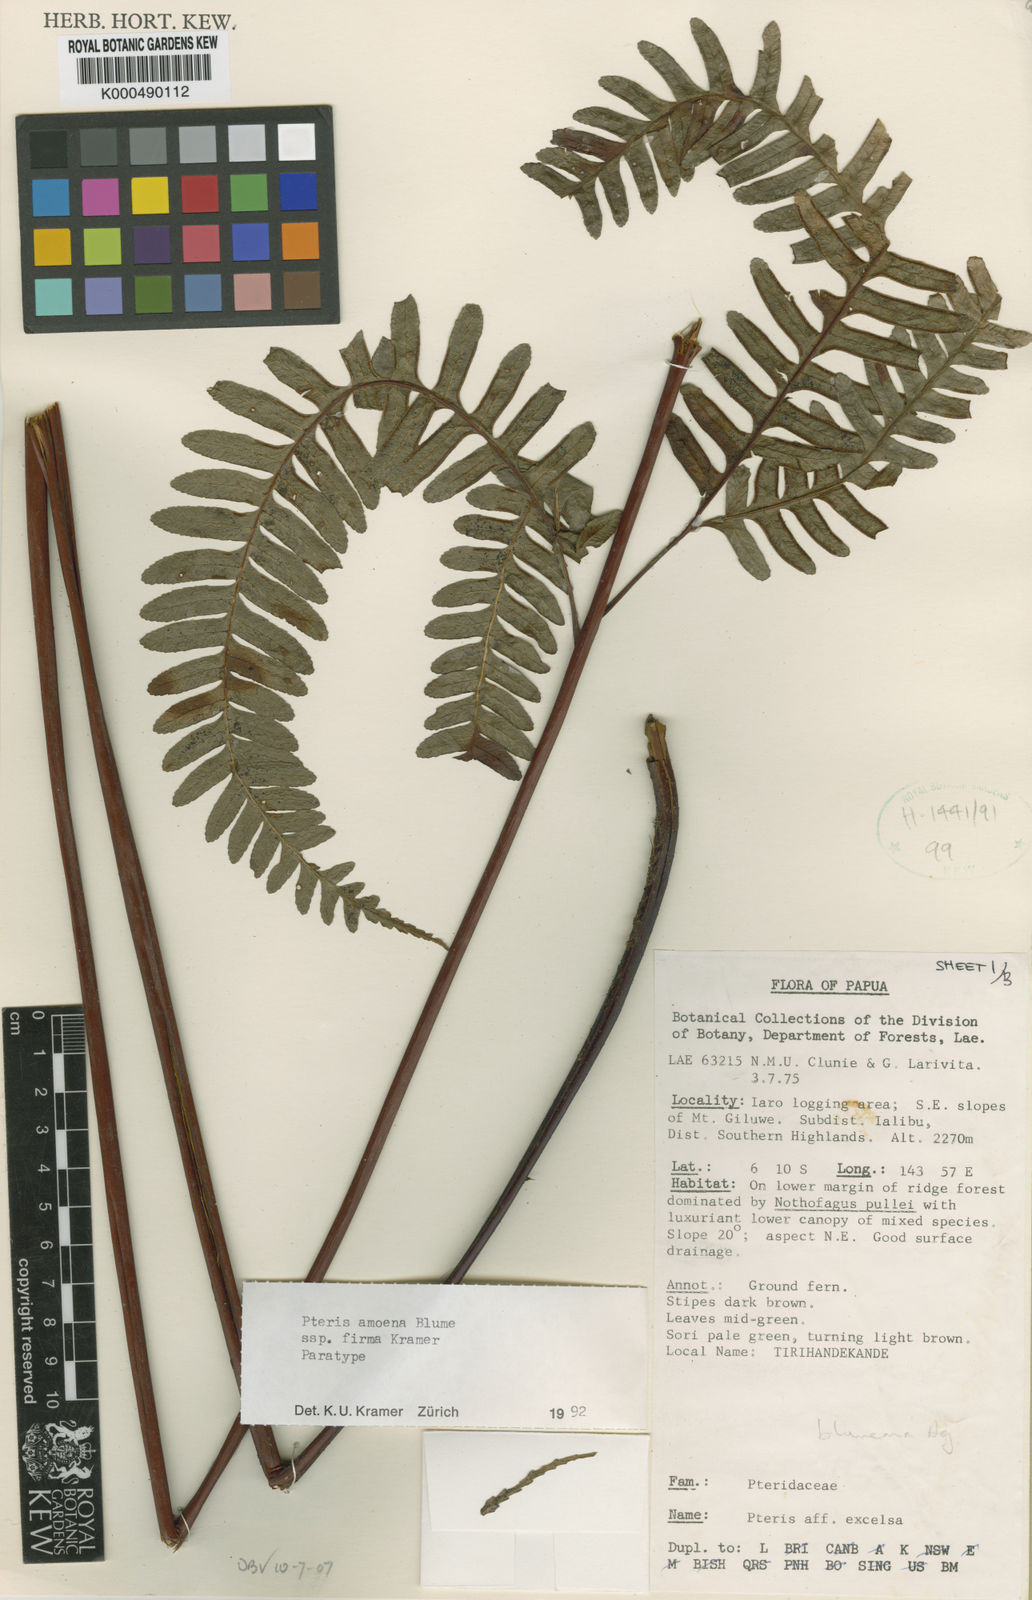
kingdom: Plantae
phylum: Tracheophyta
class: Polypodiopsida
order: Polypodiales
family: Pteridaceae
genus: Pteris
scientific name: Pteris amoena
